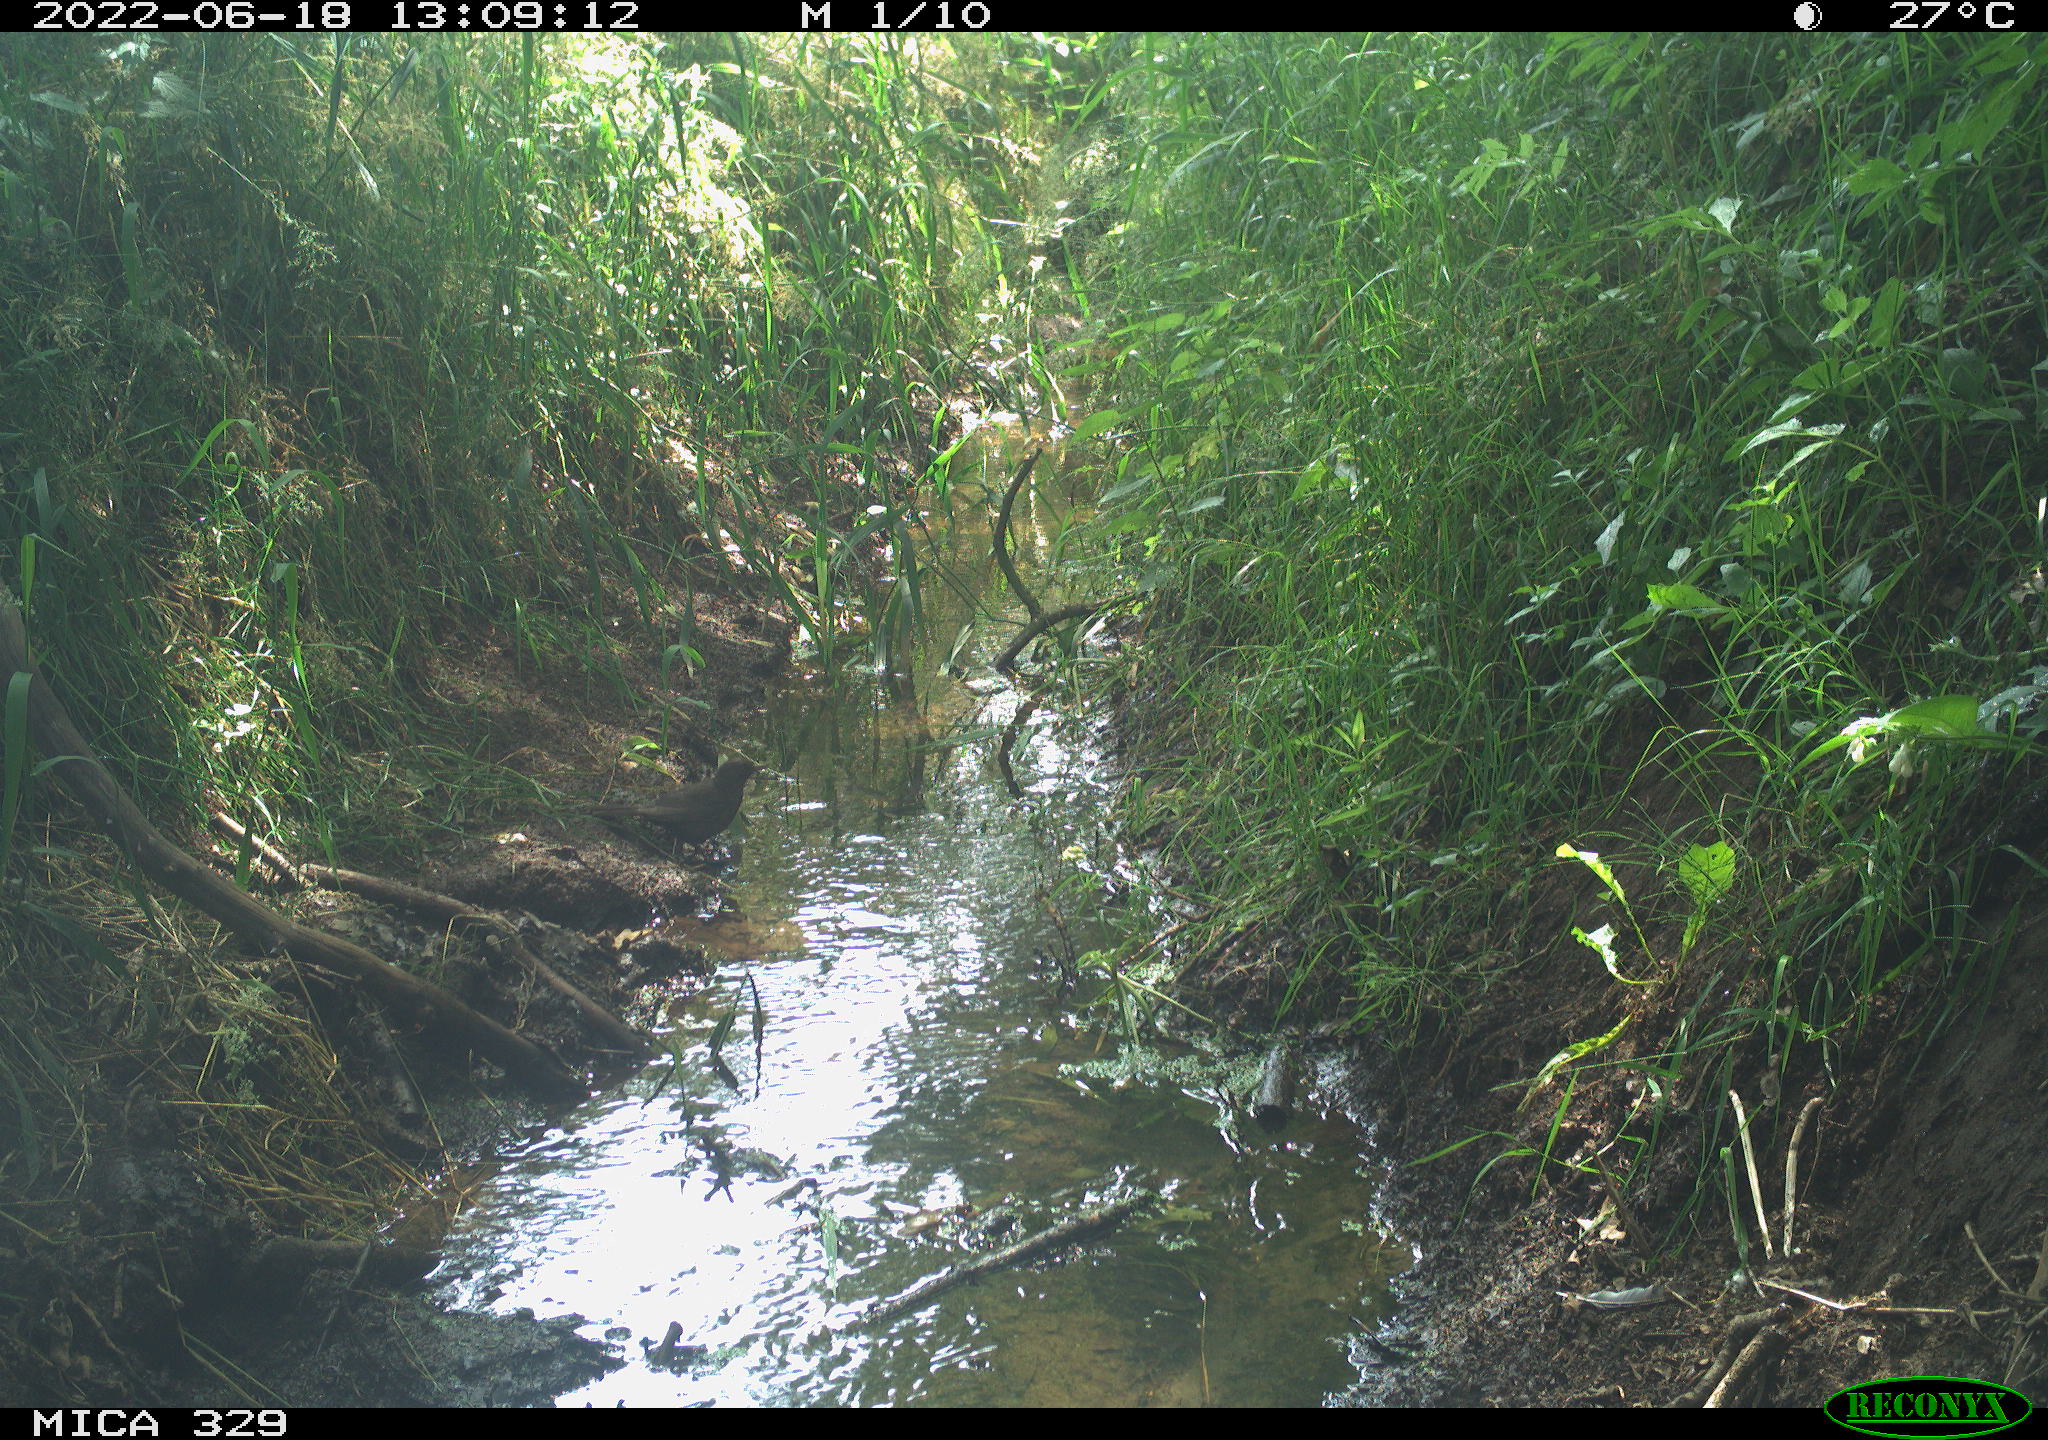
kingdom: Animalia
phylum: Chordata
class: Aves
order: Passeriformes
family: Turdidae
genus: Turdus
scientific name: Turdus merula
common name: Common blackbird
